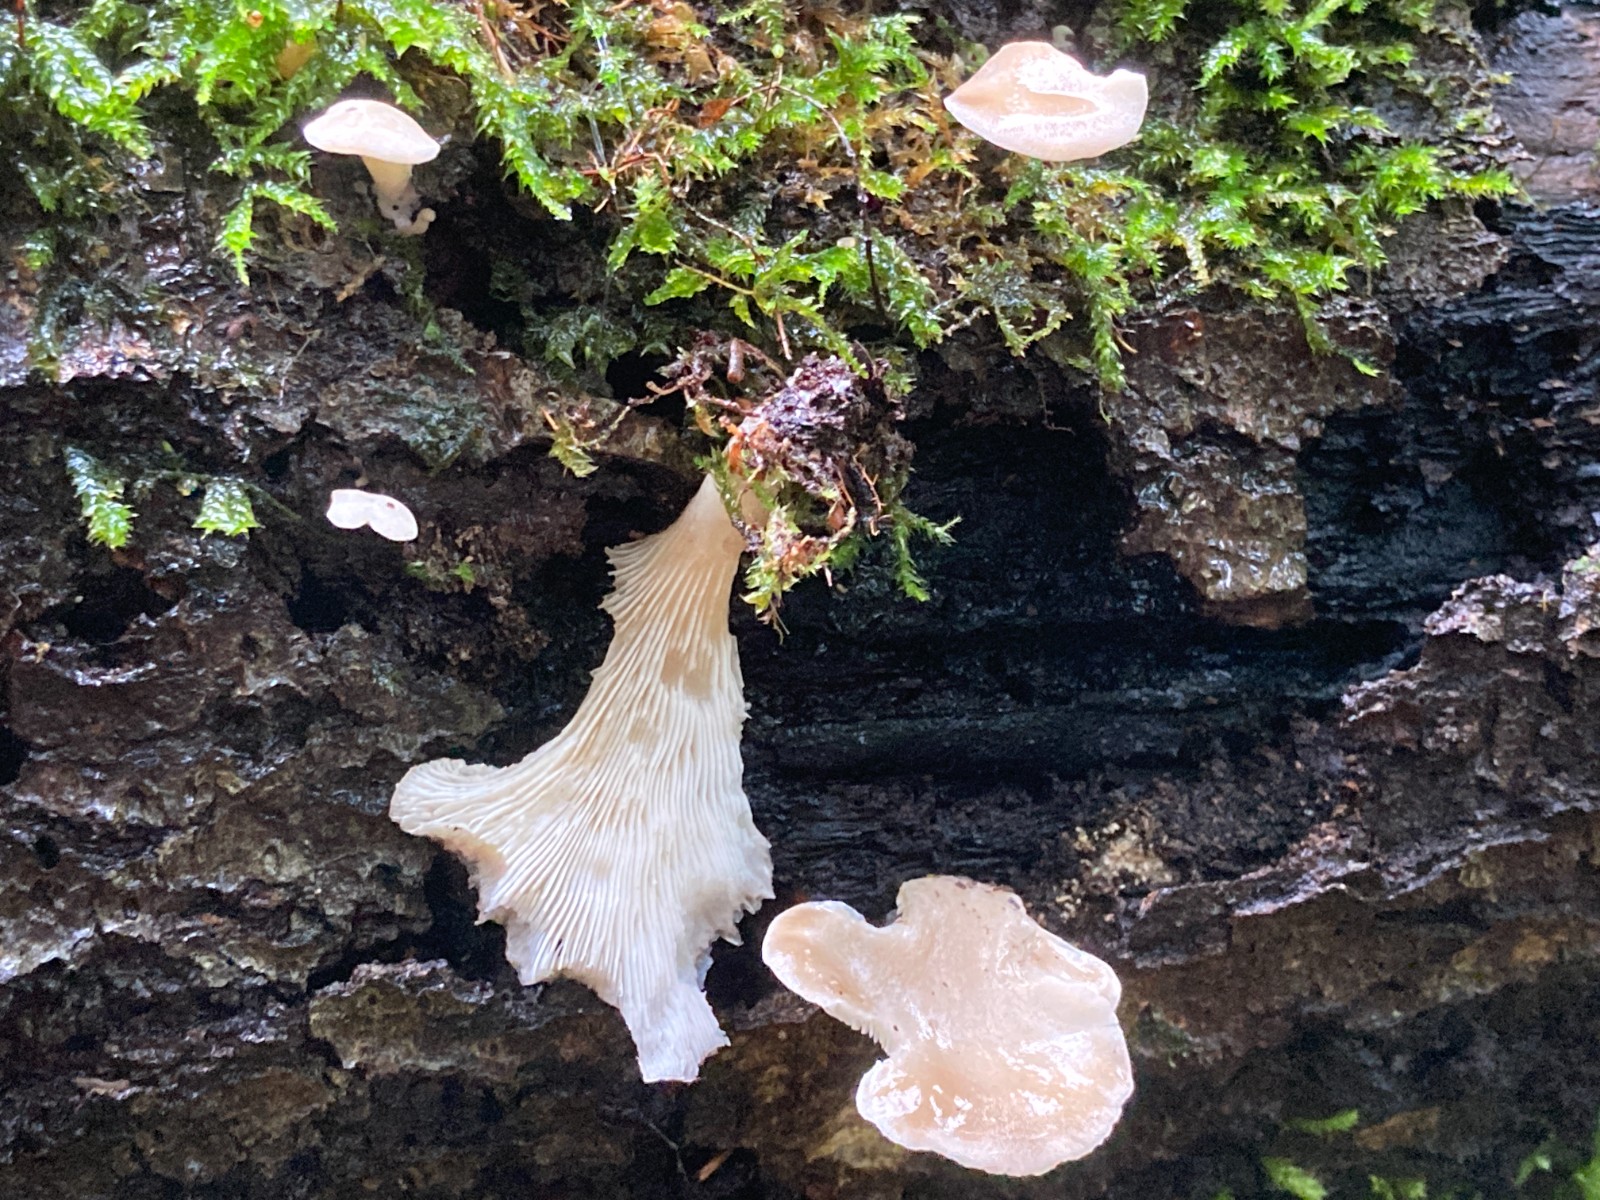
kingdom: Fungi
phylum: Basidiomycota
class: Agaricomycetes
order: Agaricales
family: Pleurotaceae
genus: Hohenbuehelia
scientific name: Hohenbuehelia auriscalpium
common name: spatel-filthat
